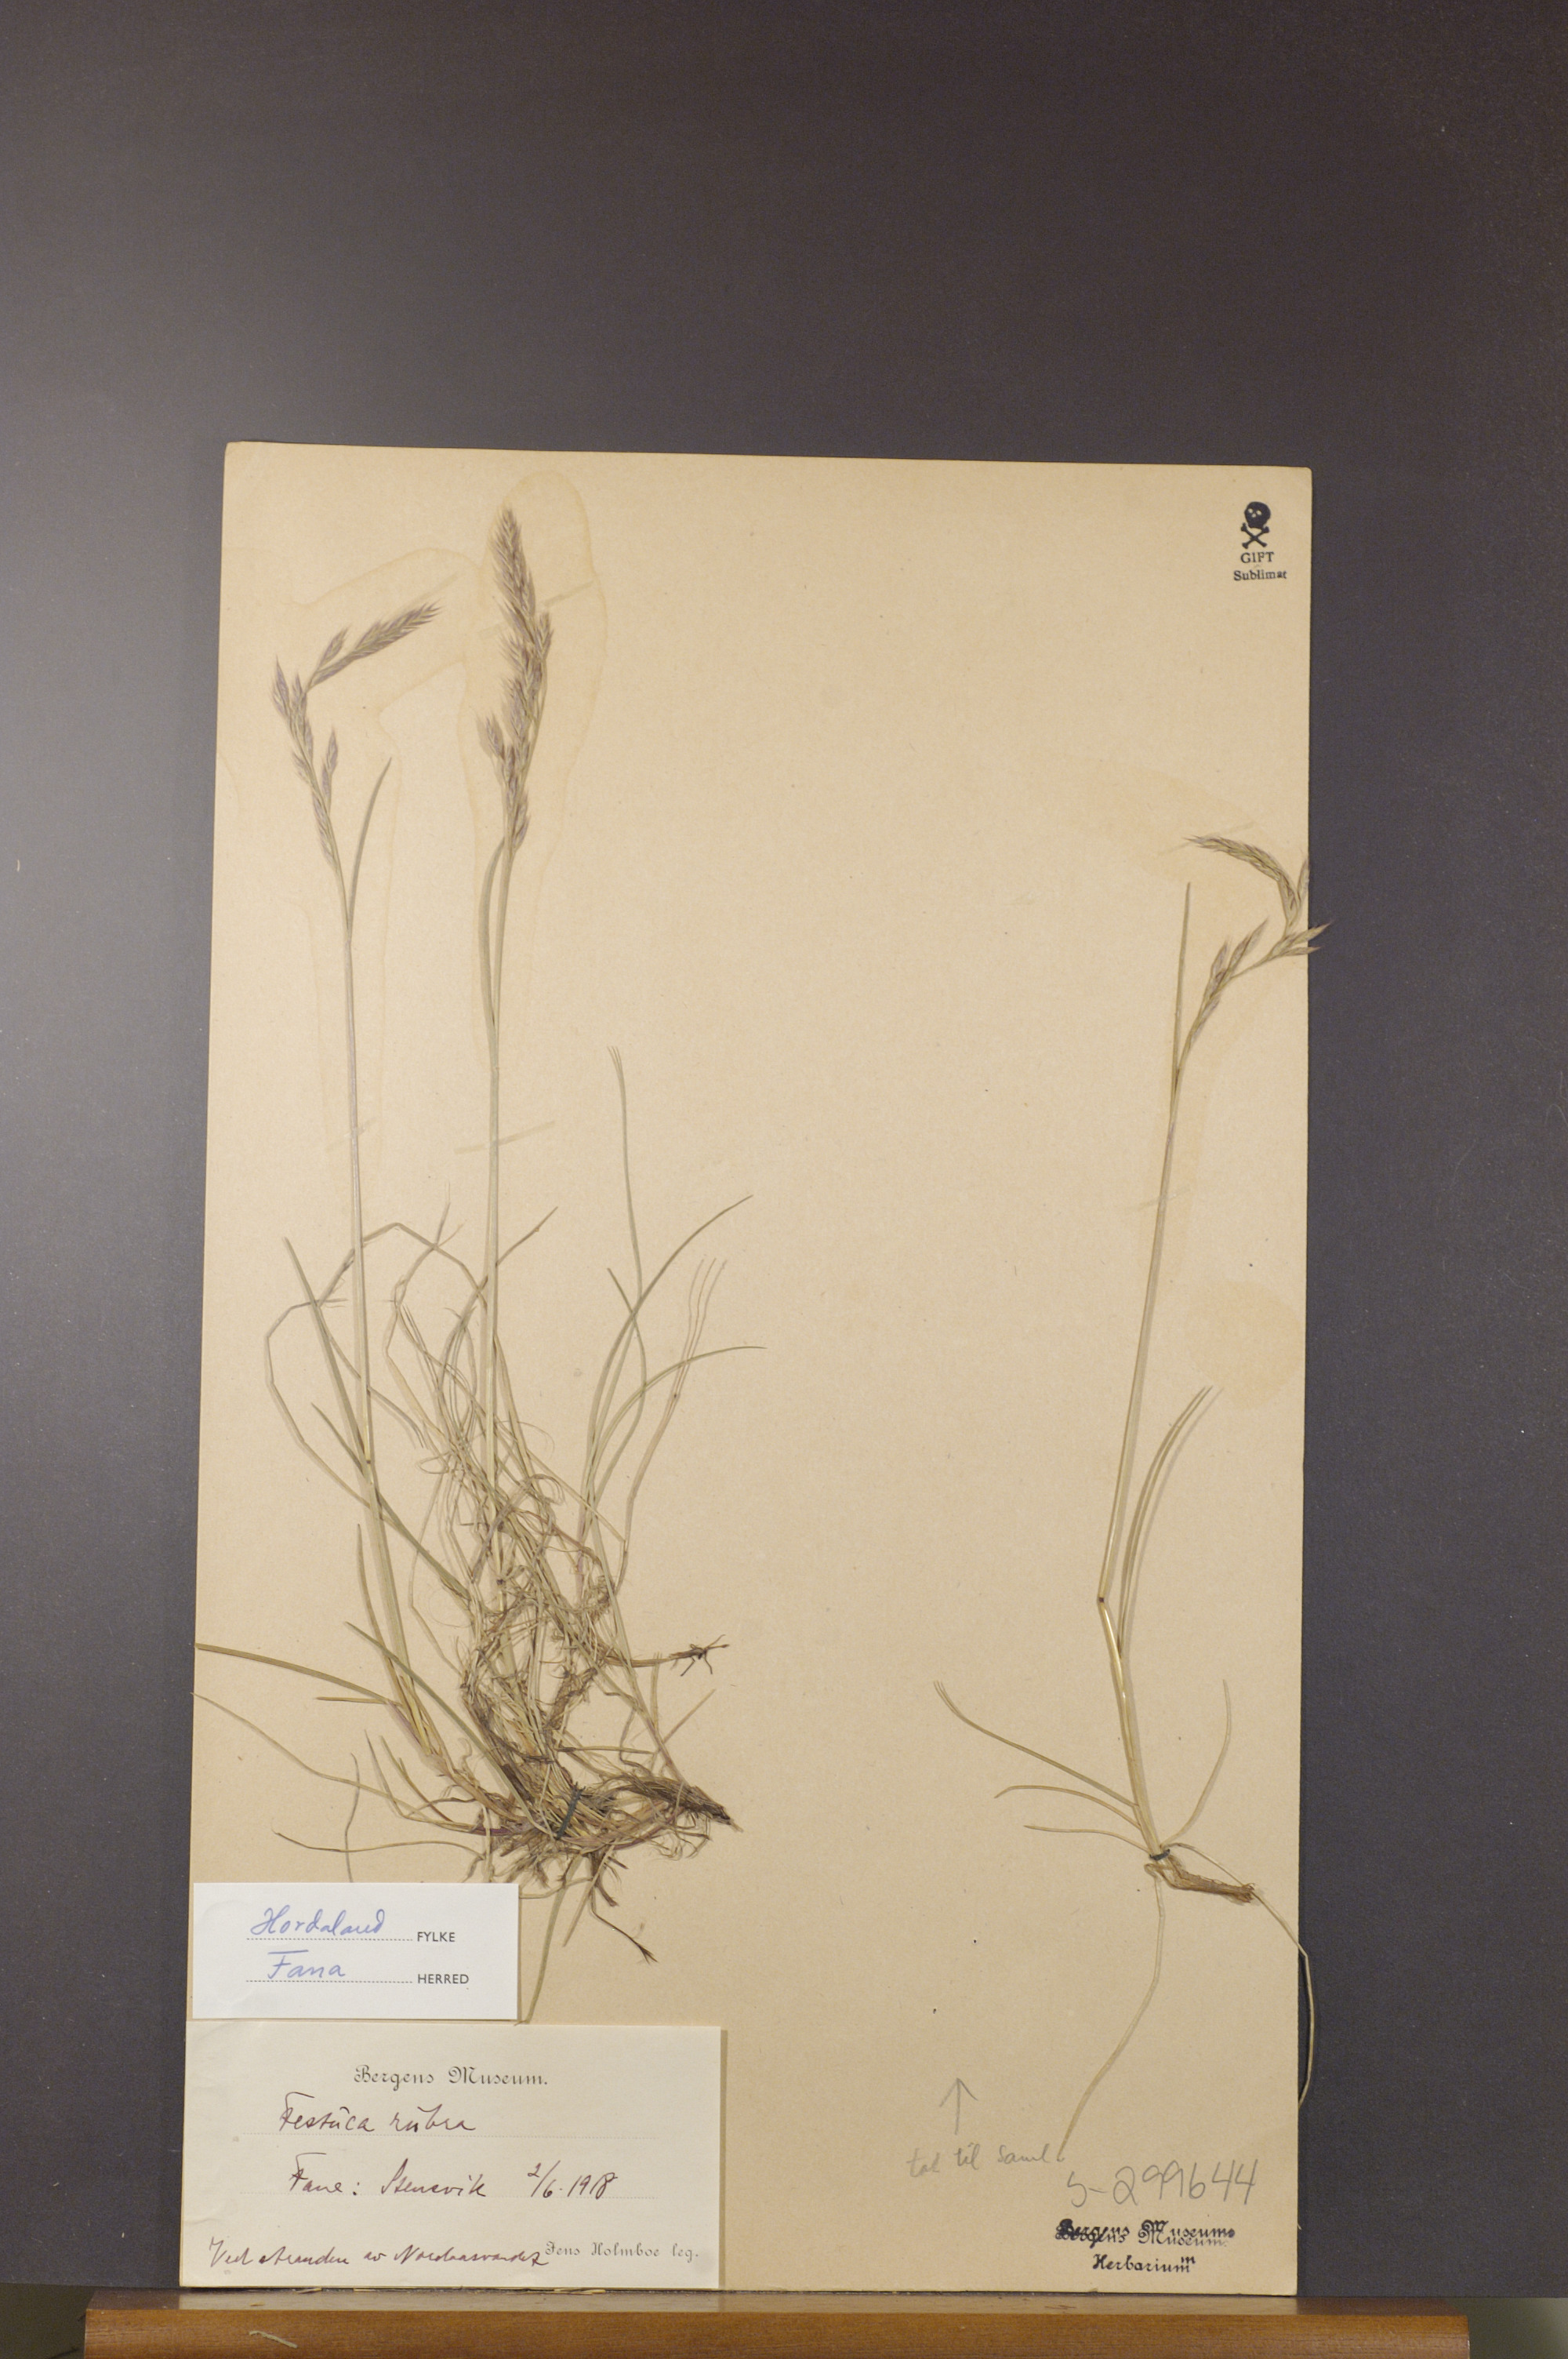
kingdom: Plantae
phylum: Tracheophyta
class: Liliopsida
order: Poales
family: Poaceae
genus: Festuca
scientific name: Festuca rubra
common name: Red fescue
